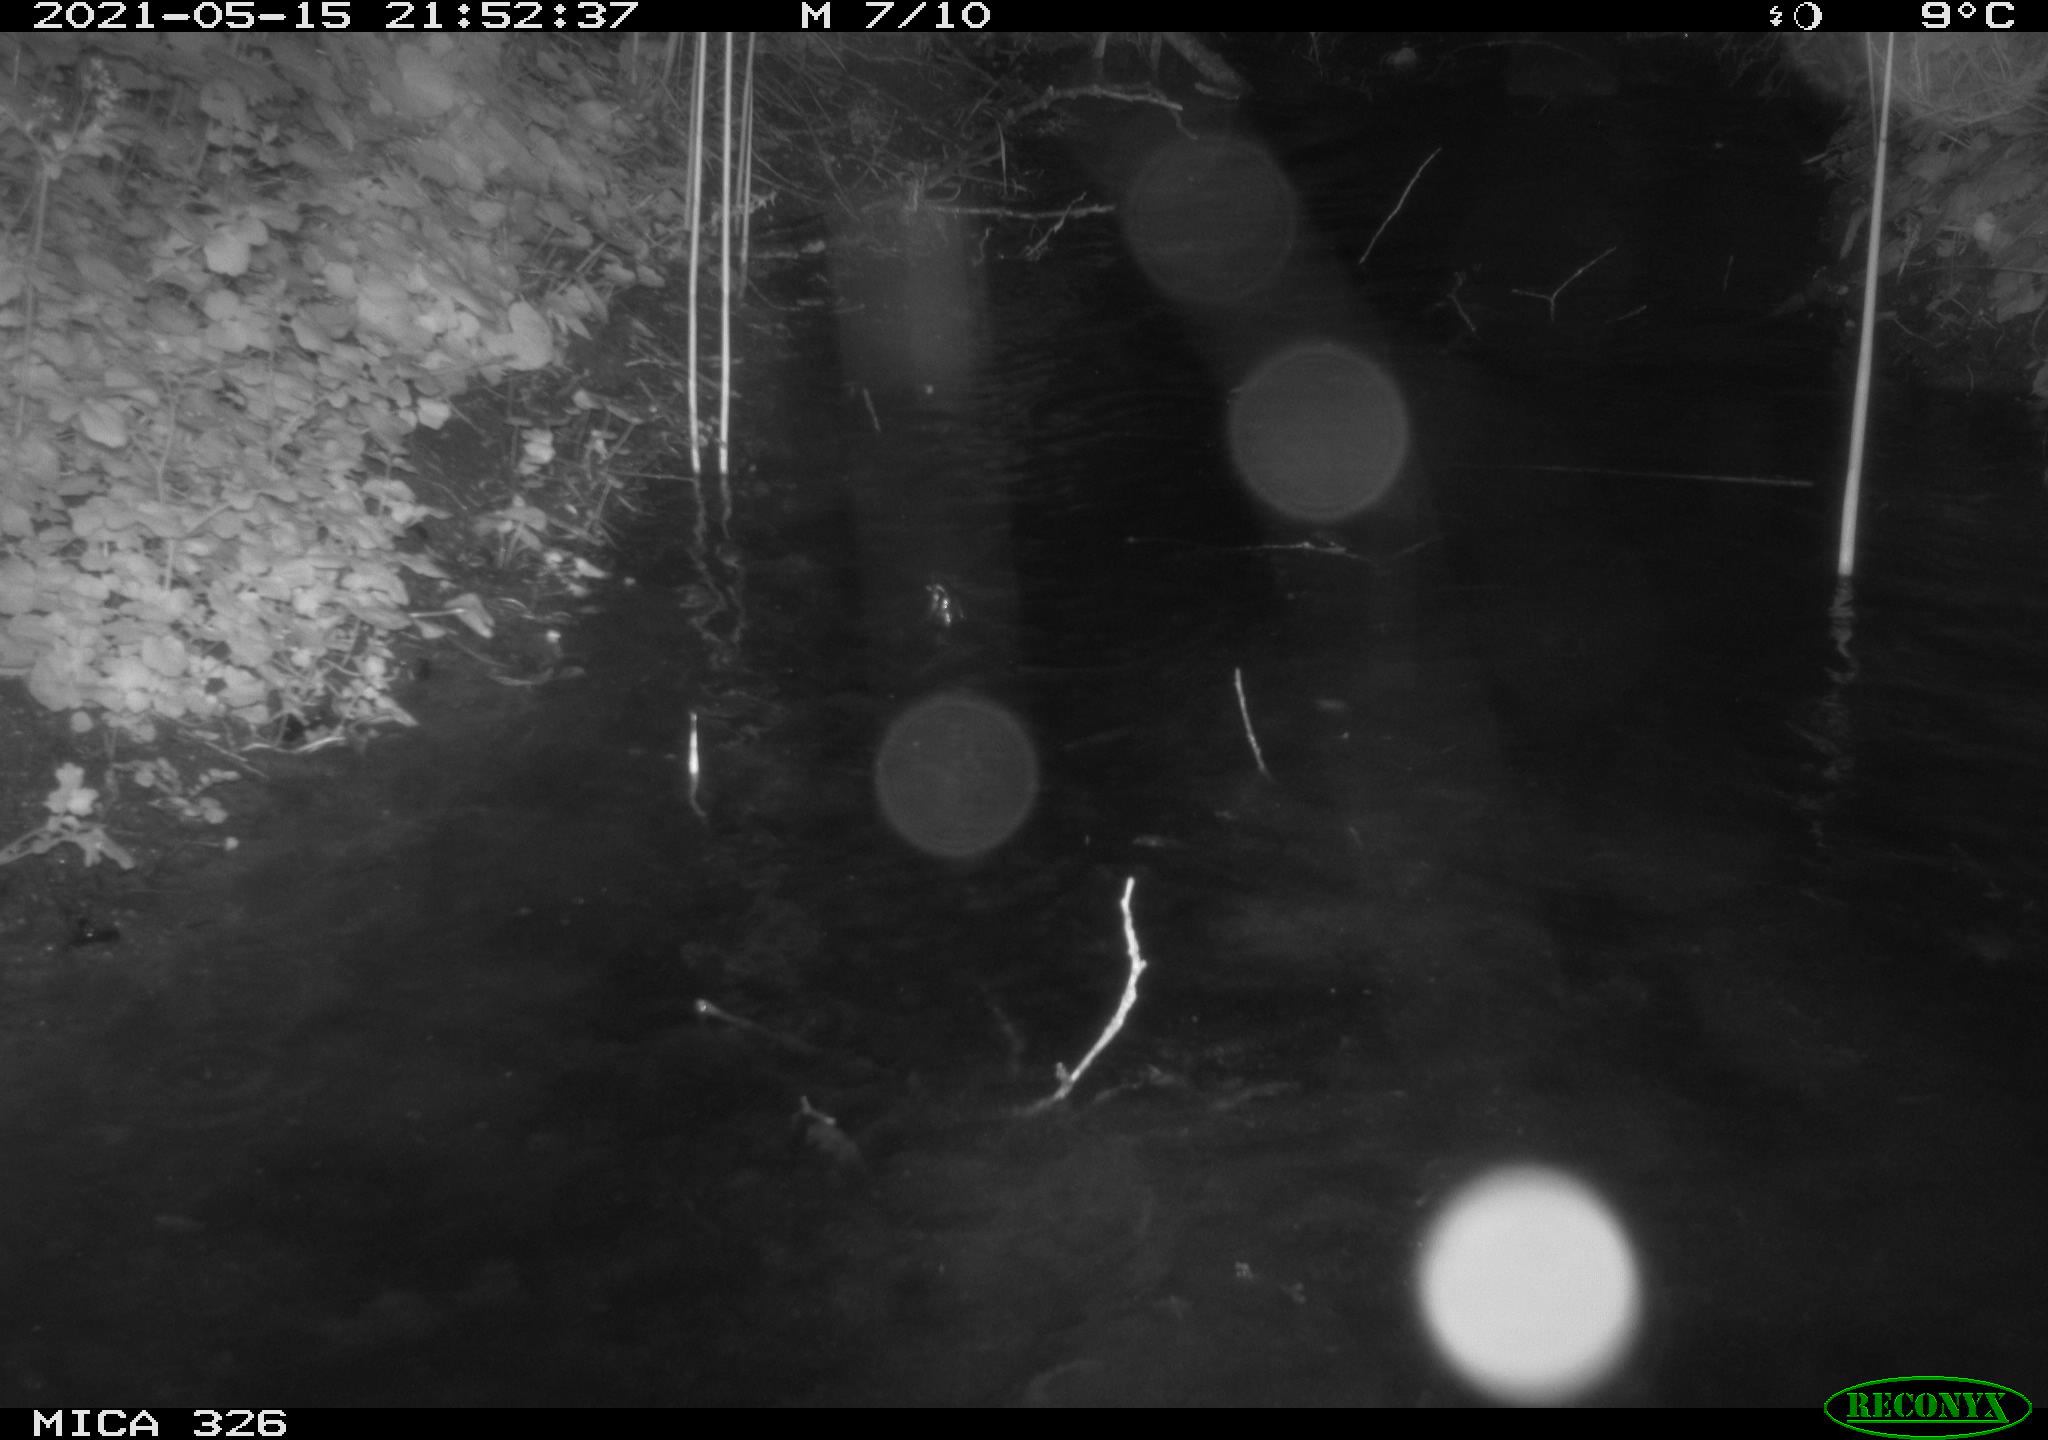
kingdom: Animalia
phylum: Chordata
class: Mammalia
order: Carnivora
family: Mustelidae
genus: Lutra
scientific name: Lutra lutra
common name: European otter
